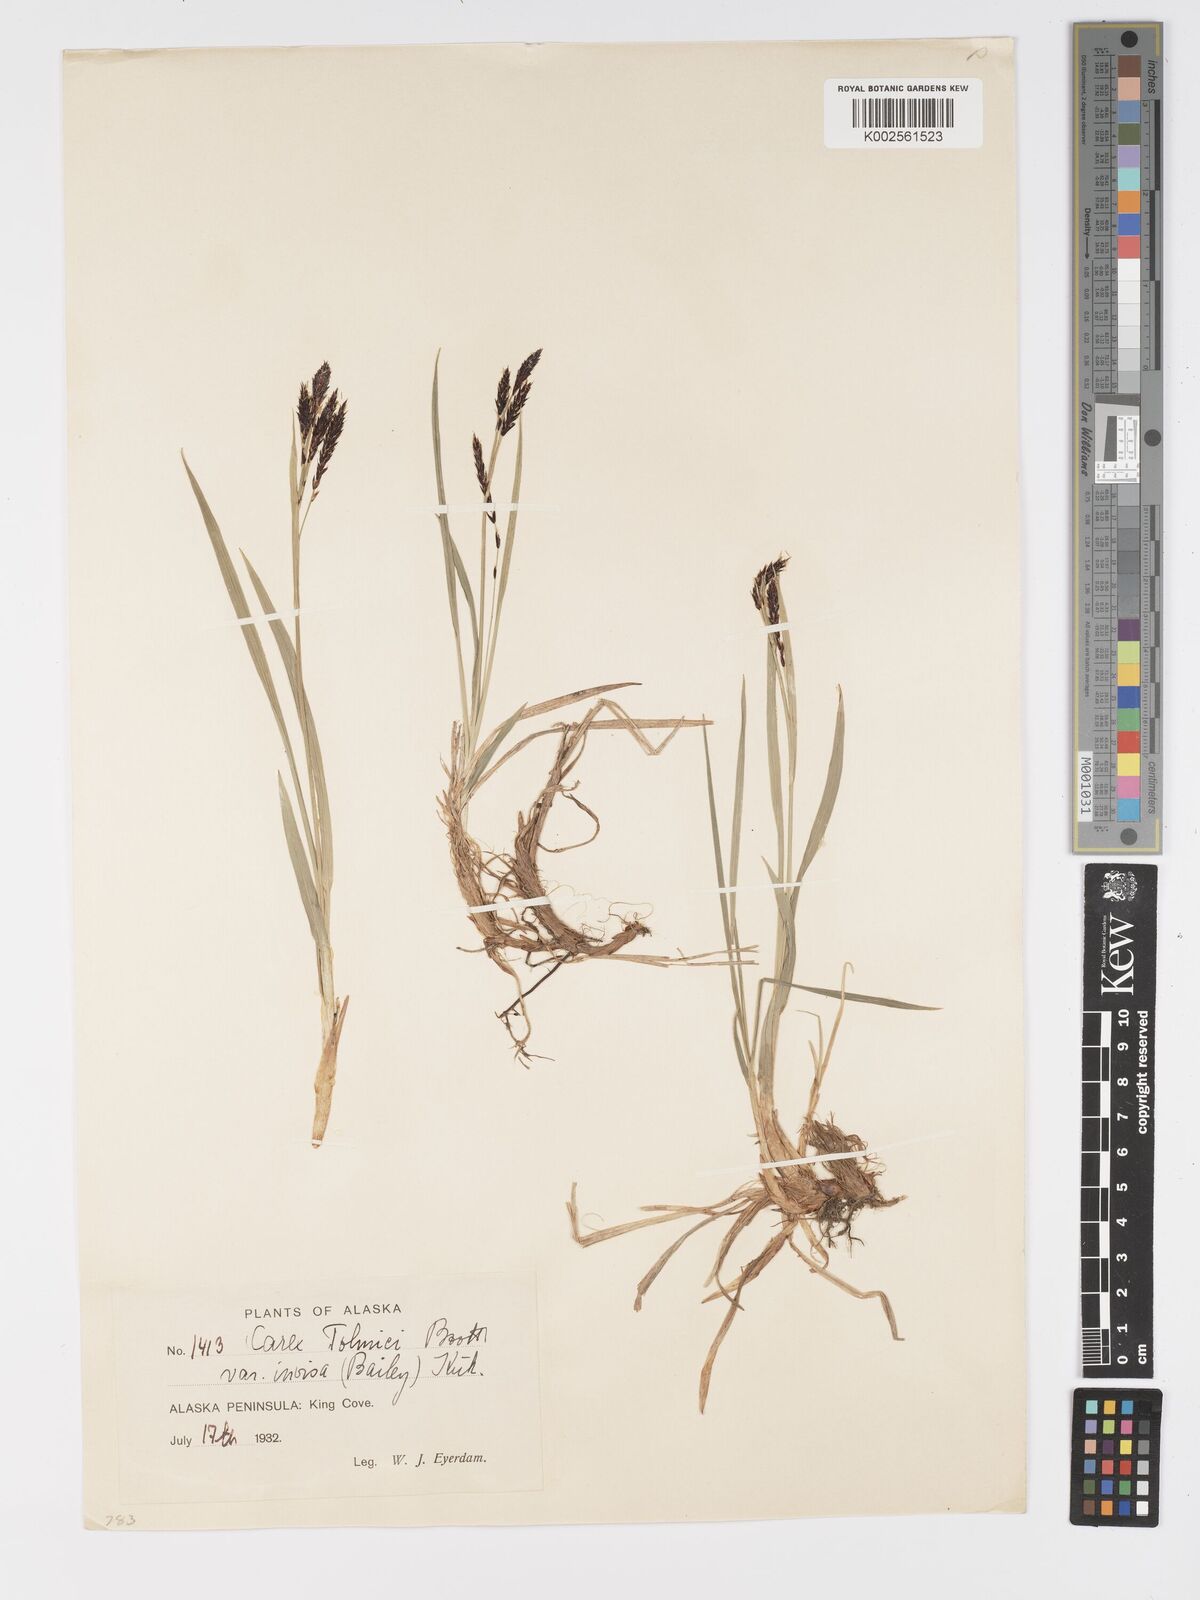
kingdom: Plantae
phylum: Tracheophyta
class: Liliopsida
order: Poales
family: Cyperaceae
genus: Carex
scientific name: Carex spectabilis
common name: Northwestern showy sedge
